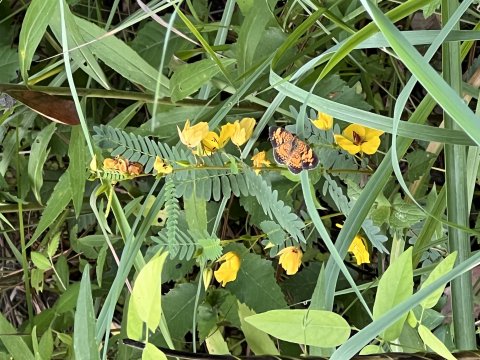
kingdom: Animalia
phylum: Arthropoda
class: Insecta
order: Lepidoptera
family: Nymphalidae
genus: Phyciodes
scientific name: Phyciodes tharos
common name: Pearl Crescent
